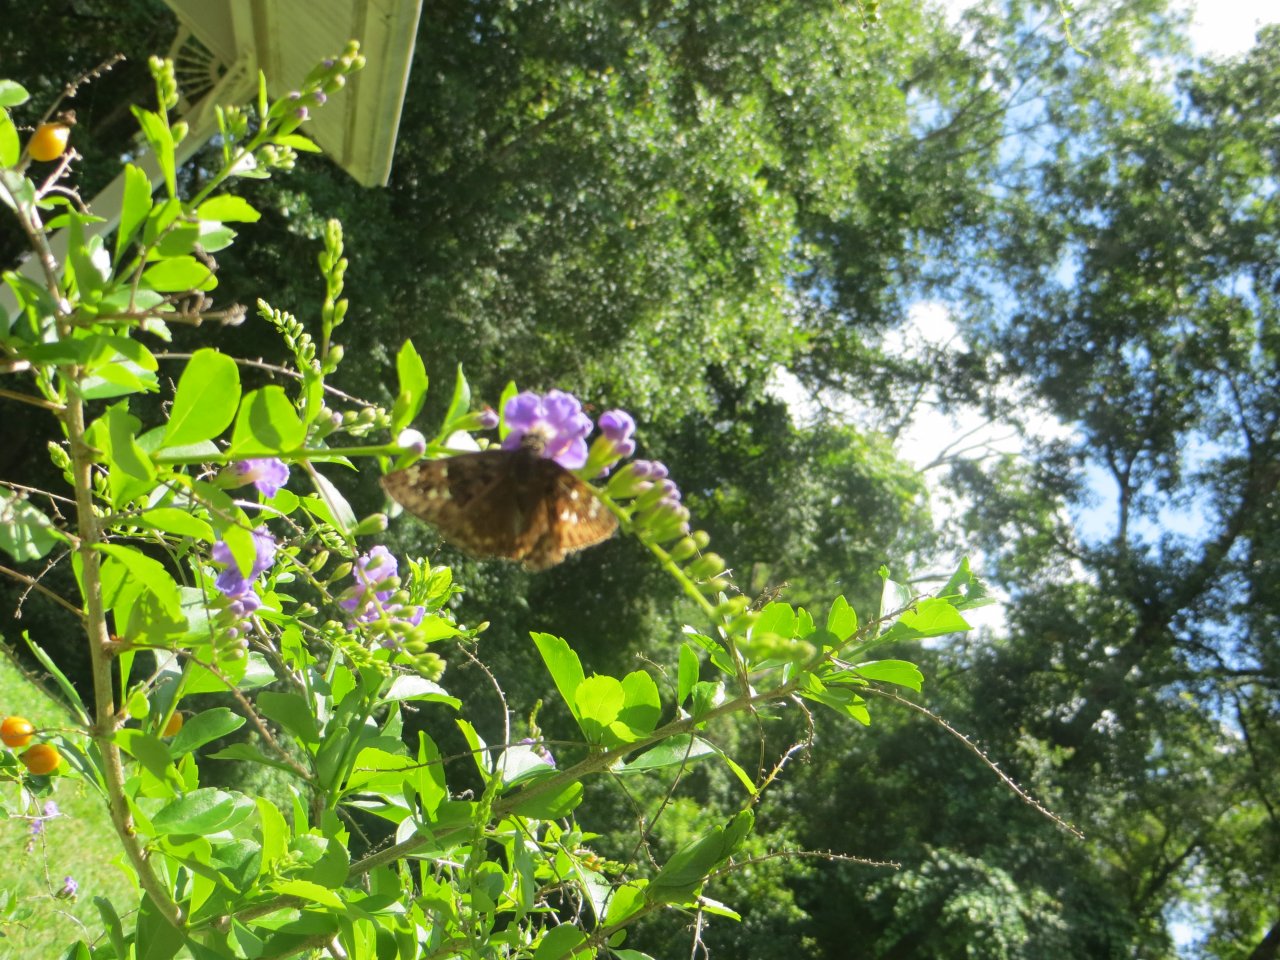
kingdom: Animalia
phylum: Arthropoda
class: Insecta
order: Lepidoptera
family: Hesperiidae
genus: Gesta
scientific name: Gesta
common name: Horace's Duskywing
